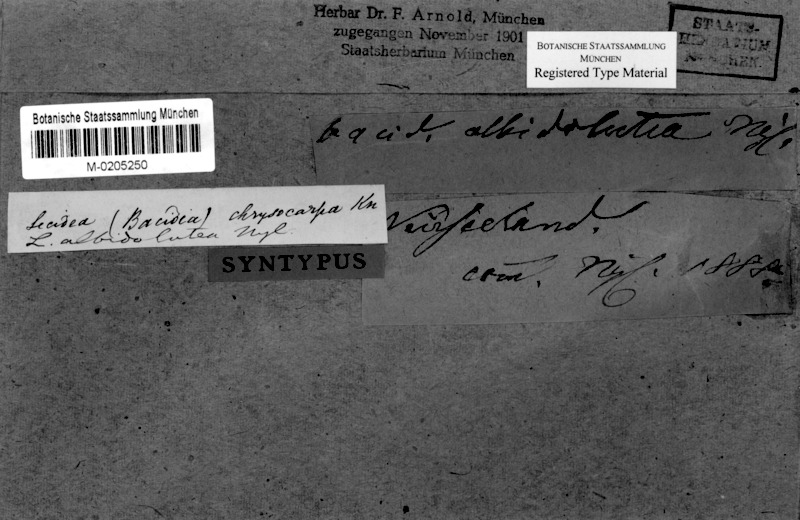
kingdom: Fungi
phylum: Ascomycota
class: Lecanoromycetes
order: Lecanorales
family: Ramalinaceae
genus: Bacidia
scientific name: Bacidia leucocarpa
